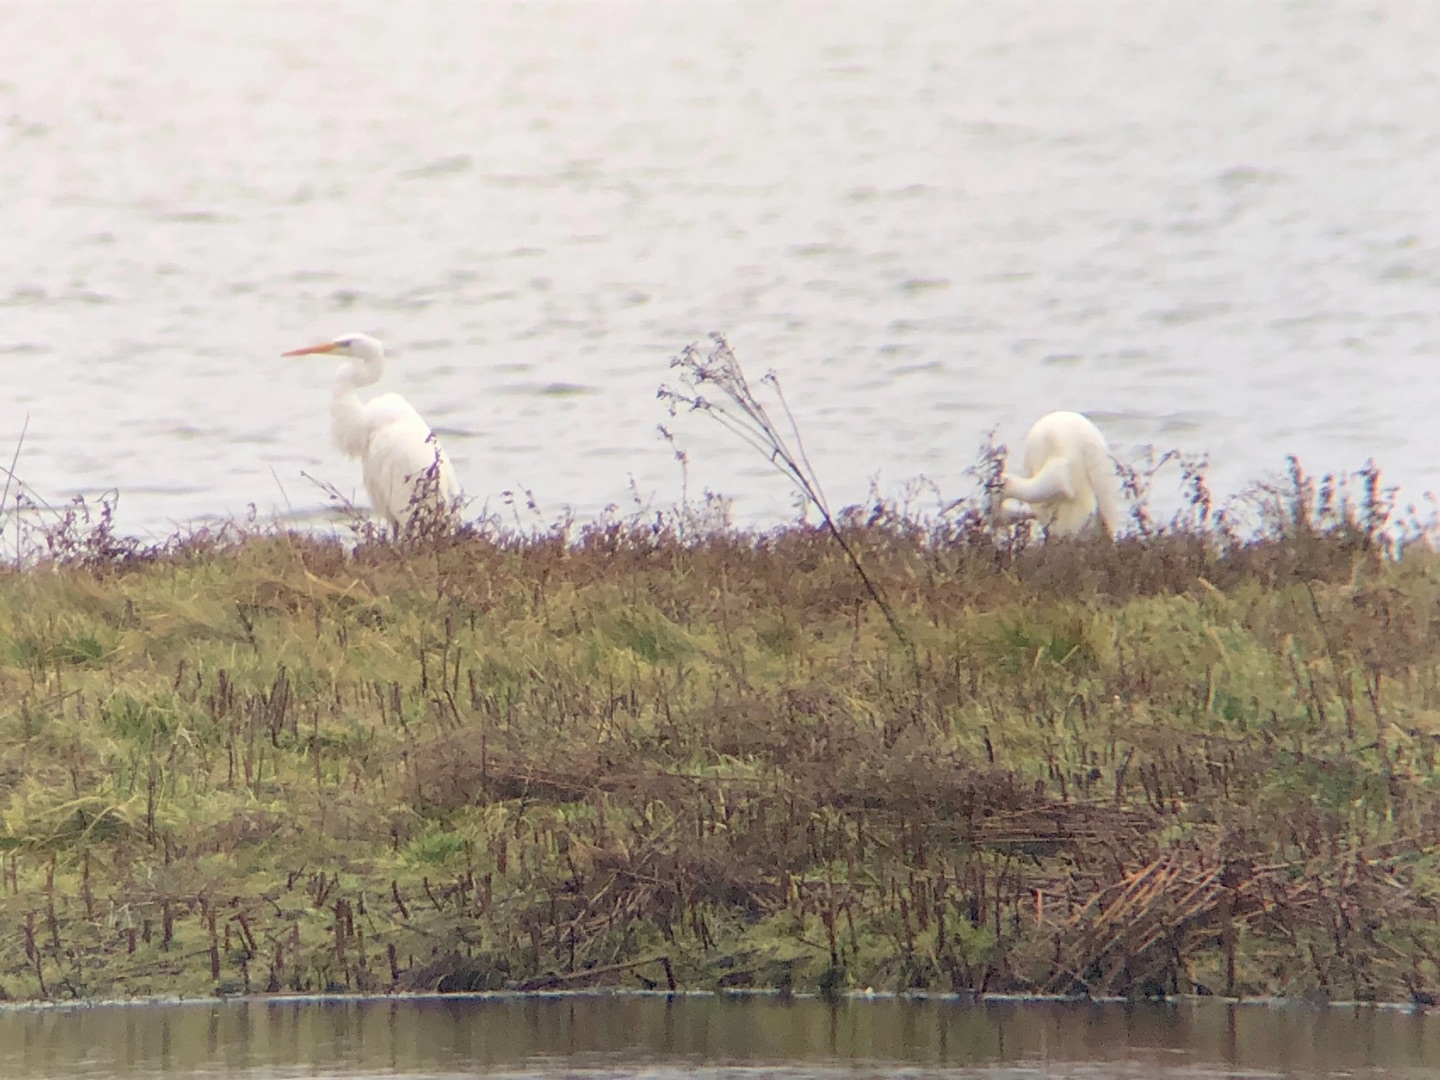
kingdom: Animalia
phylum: Chordata
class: Aves
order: Pelecaniformes
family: Ardeidae
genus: Ardea
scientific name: Ardea alba
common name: Sølvhejre
